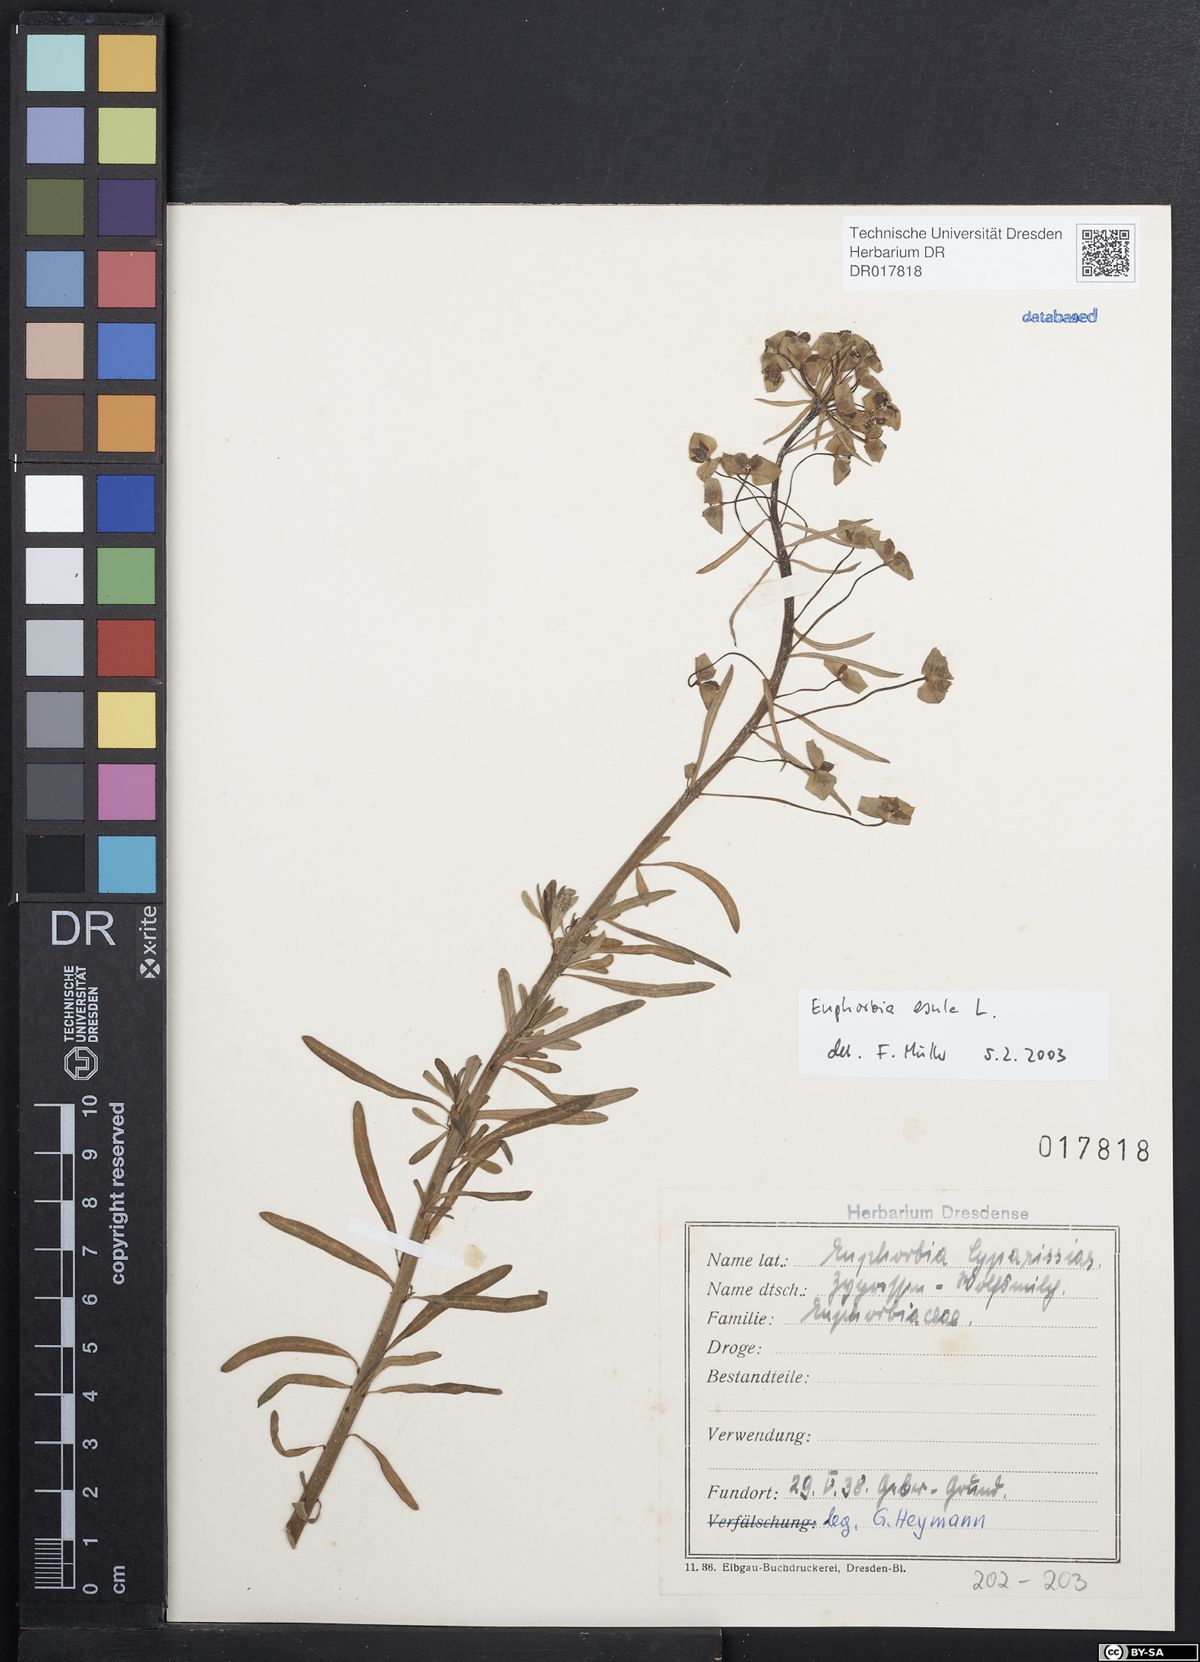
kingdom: Plantae
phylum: Tracheophyta
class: Magnoliopsida
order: Malpighiales
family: Euphorbiaceae
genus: Euphorbia
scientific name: Euphorbia esula
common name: Leafy spurge
